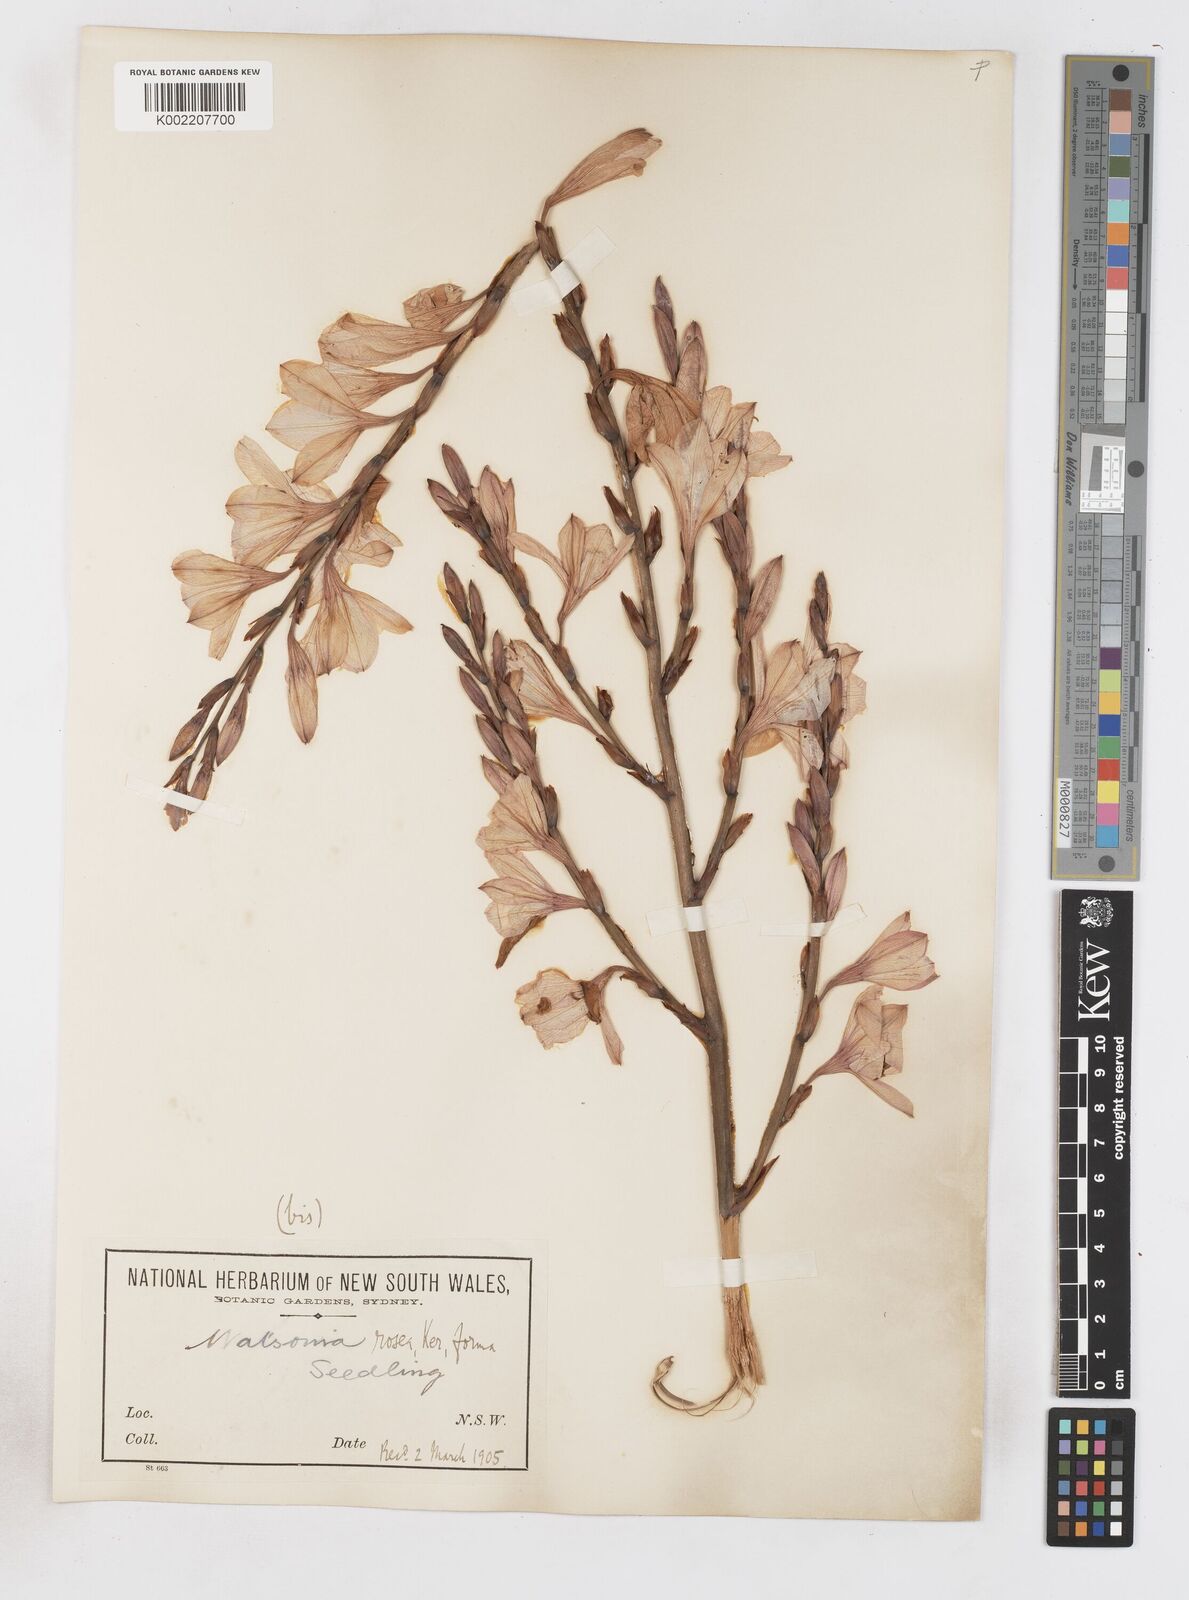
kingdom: Plantae
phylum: Tracheophyta
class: Liliopsida
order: Asparagales
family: Iridaceae
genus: Watsonia
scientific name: Watsonia borbonica
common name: Bugle-lily
